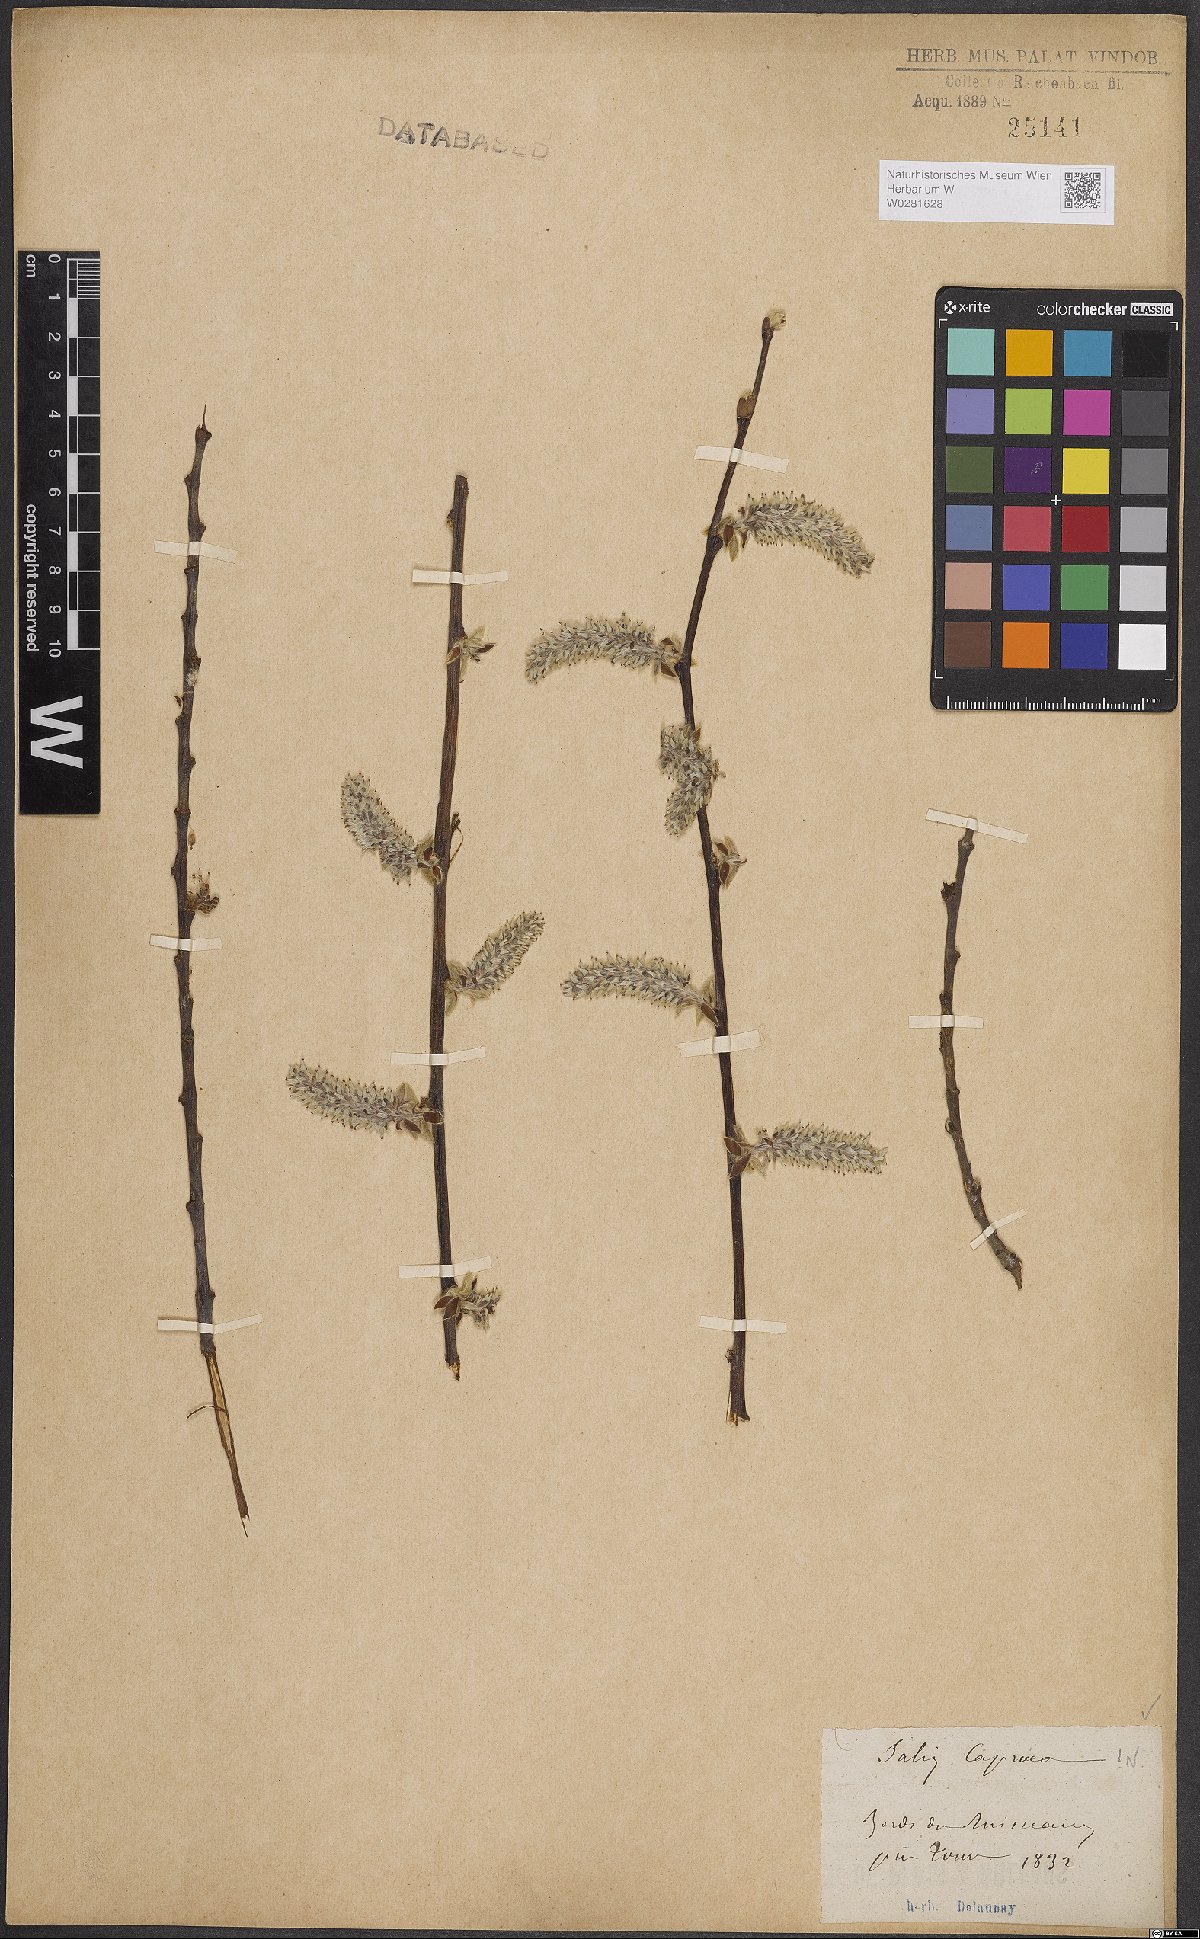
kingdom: Plantae
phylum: Tracheophyta
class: Magnoliopsida
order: Malpighiales
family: Salicaceae
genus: Salix
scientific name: Salix caprea
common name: Goat willow
